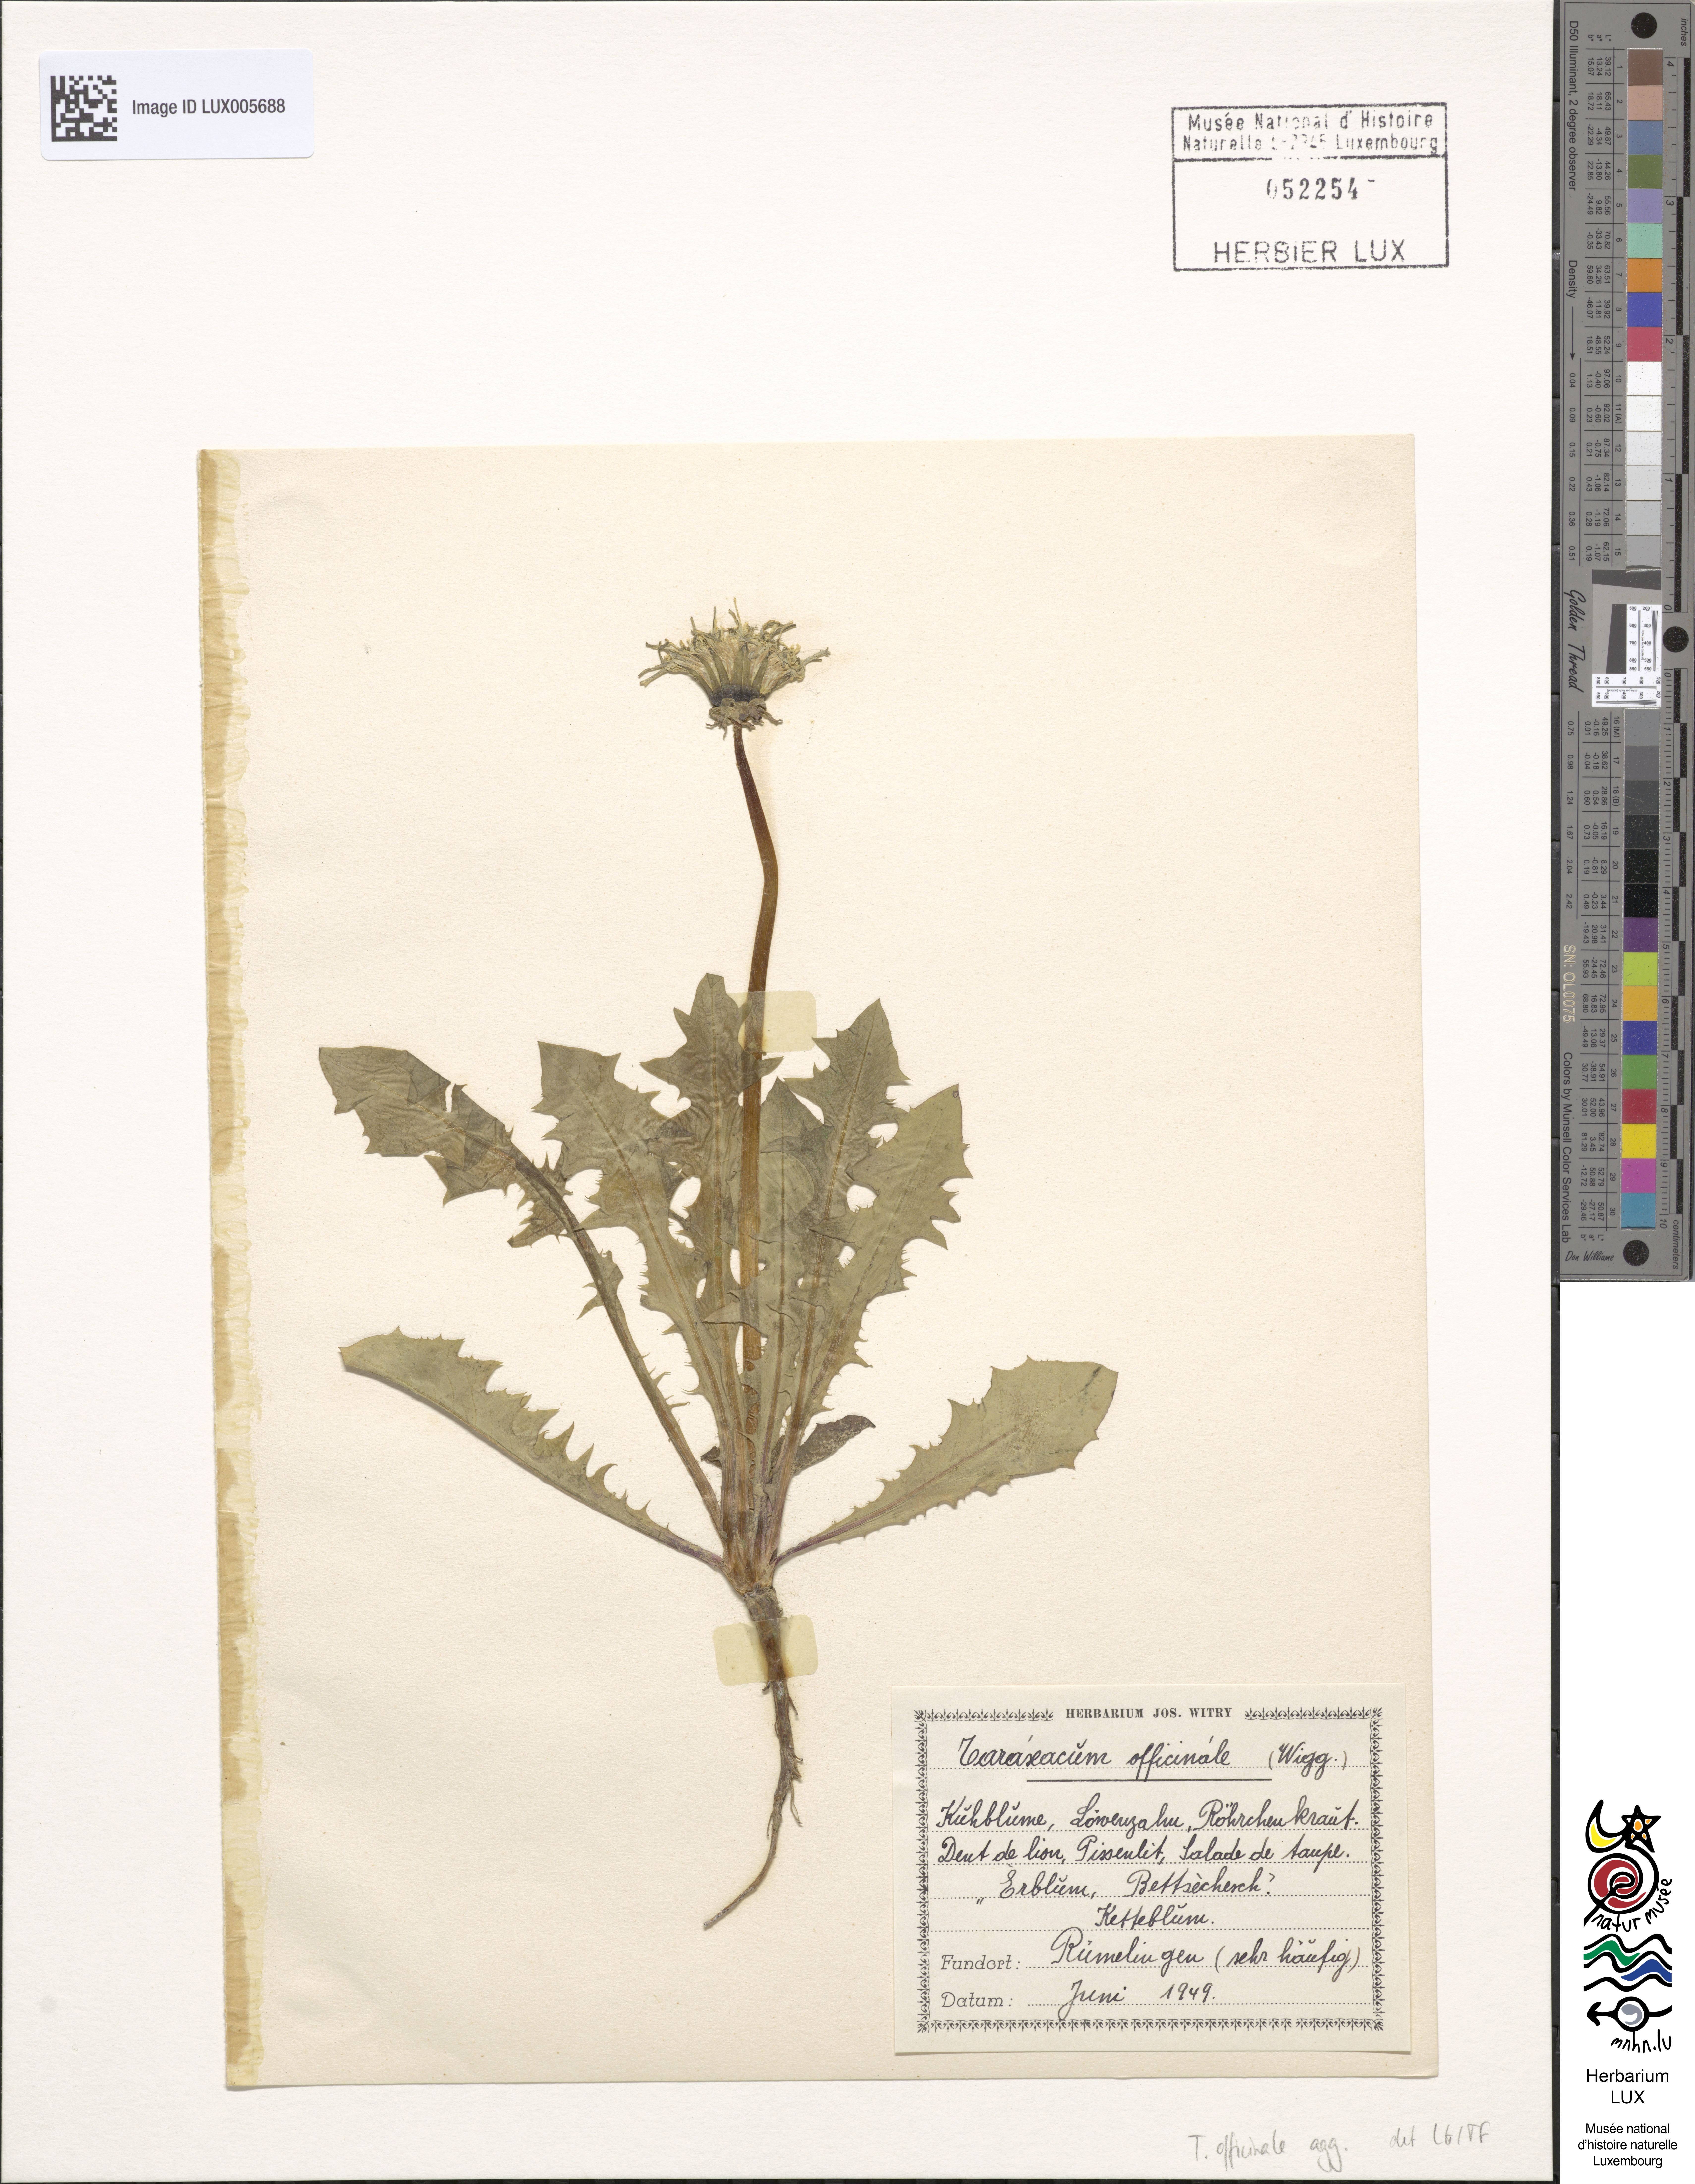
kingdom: Plantae
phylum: Tracheophyta
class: Magnoliopsida
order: Asterales
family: Asteraceae
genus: Taraxacum
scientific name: Taraxacum
